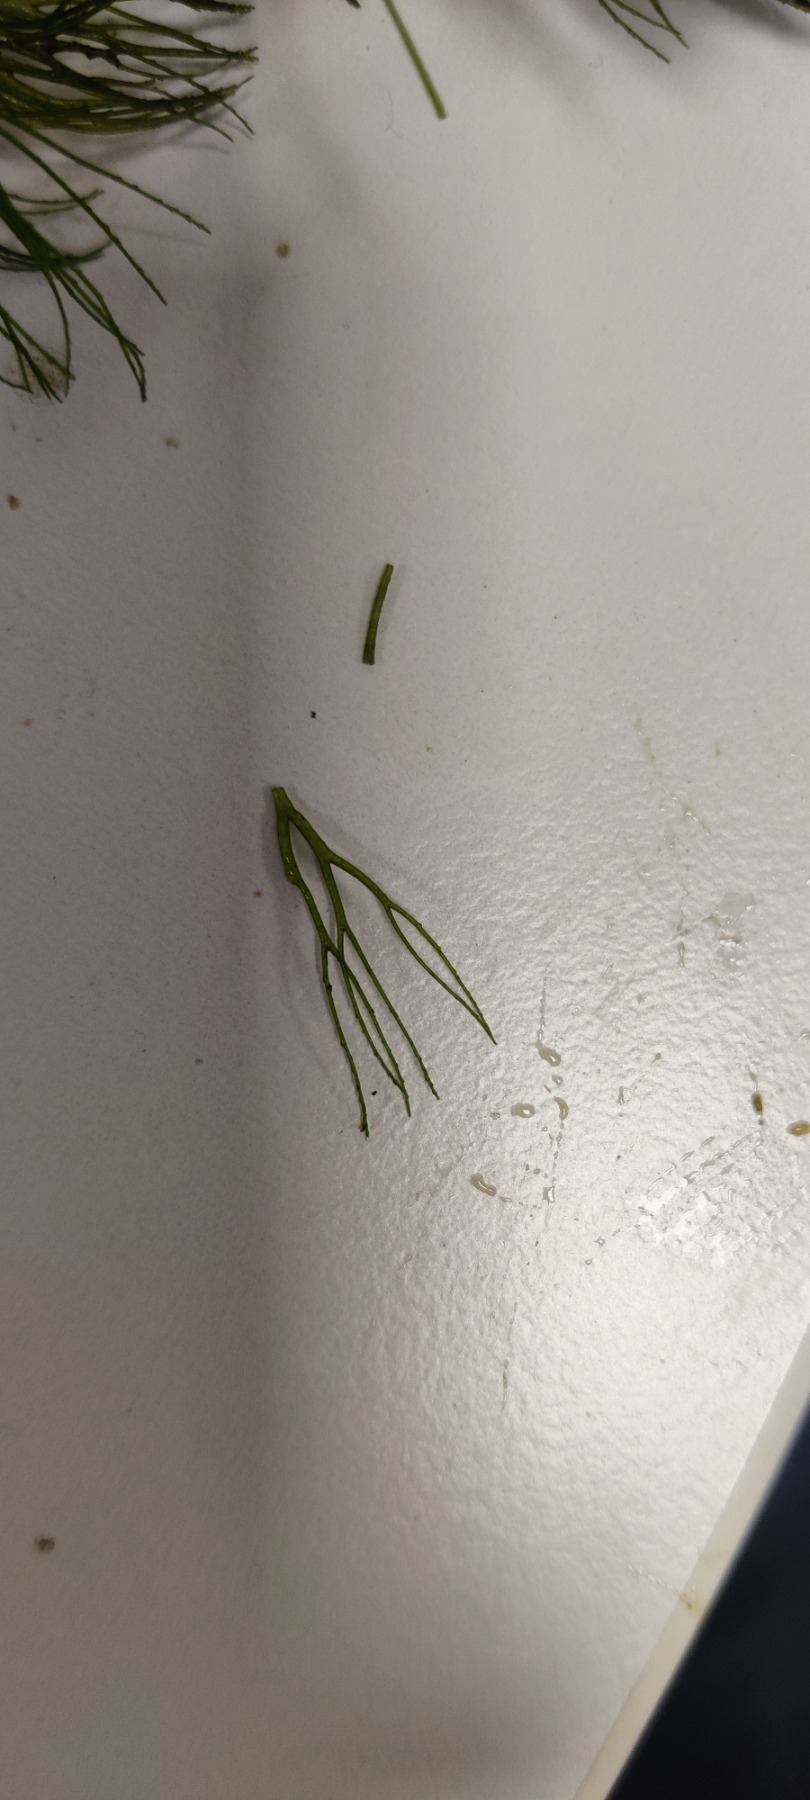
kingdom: Plantae
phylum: Tracheophyta
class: Magnoliopsida
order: Ceratophyllales
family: Ceratophyllaceae
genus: Ceratophyllum
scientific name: Ceratophyllum submersum
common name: Tornløs hornblad
